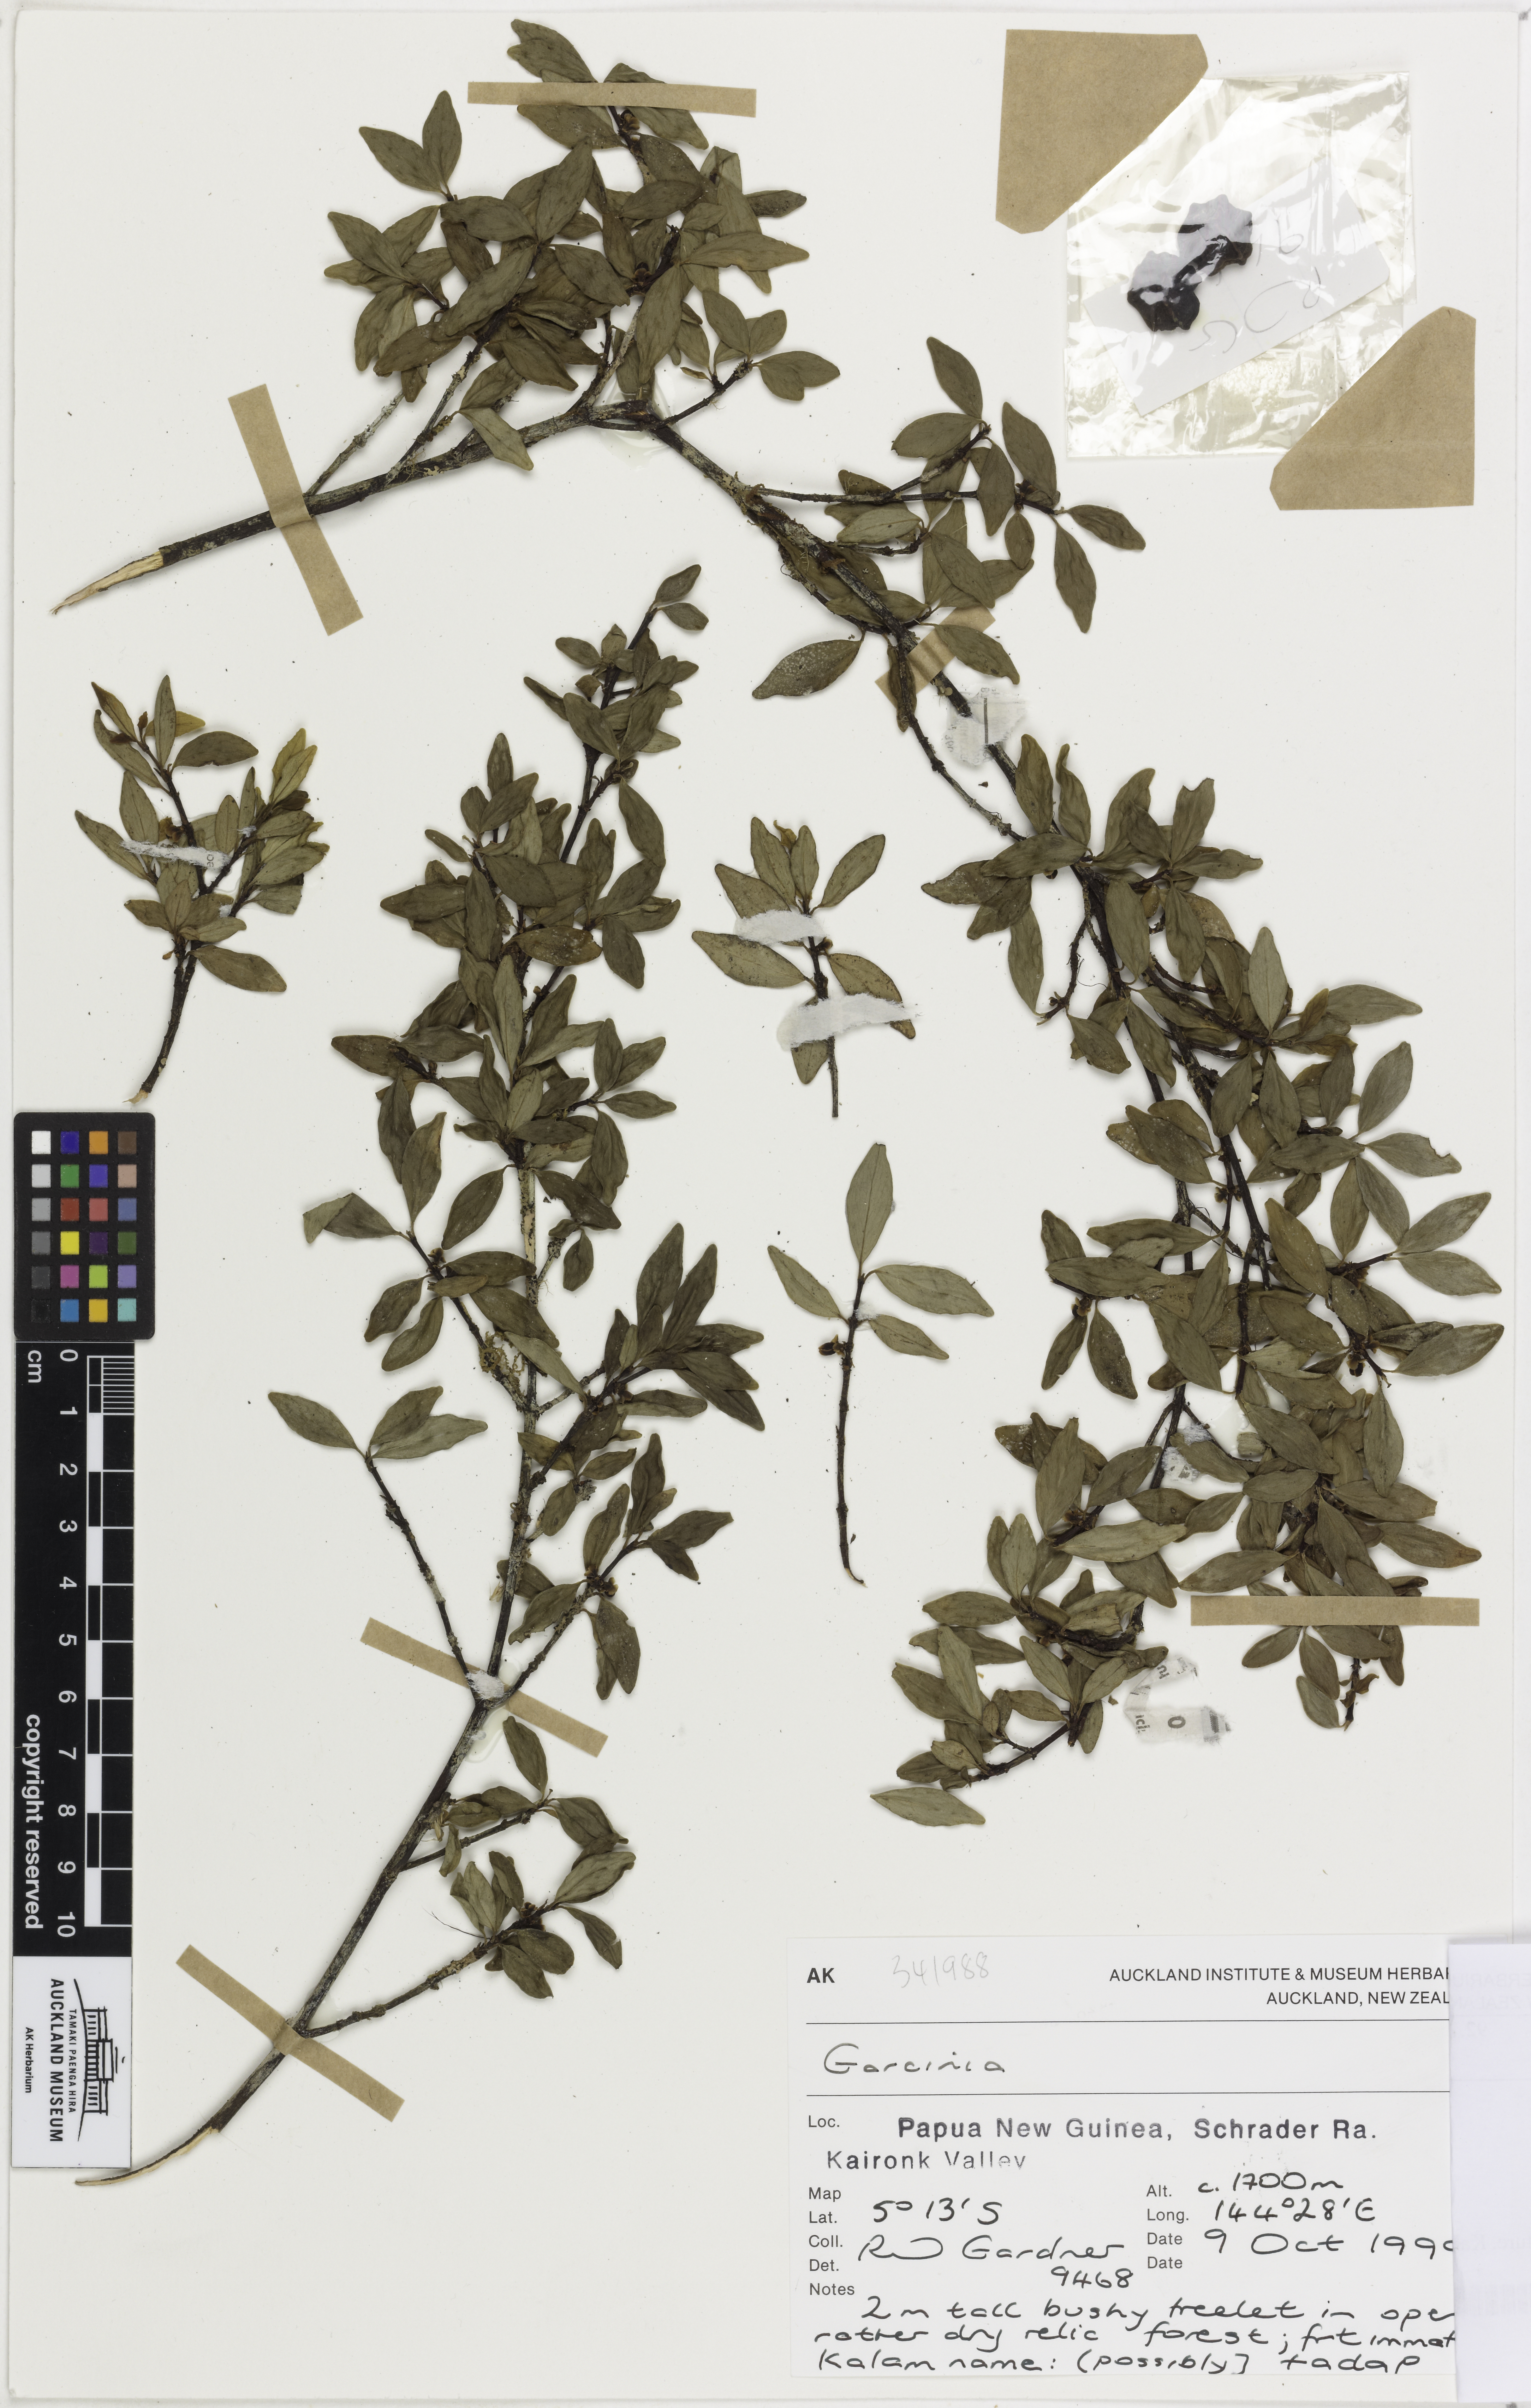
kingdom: Plantae
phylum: Tracheophyta
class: Magnoliopsida
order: Malpighiales
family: Clusiaceae
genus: Garcinia
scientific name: Garcinia
